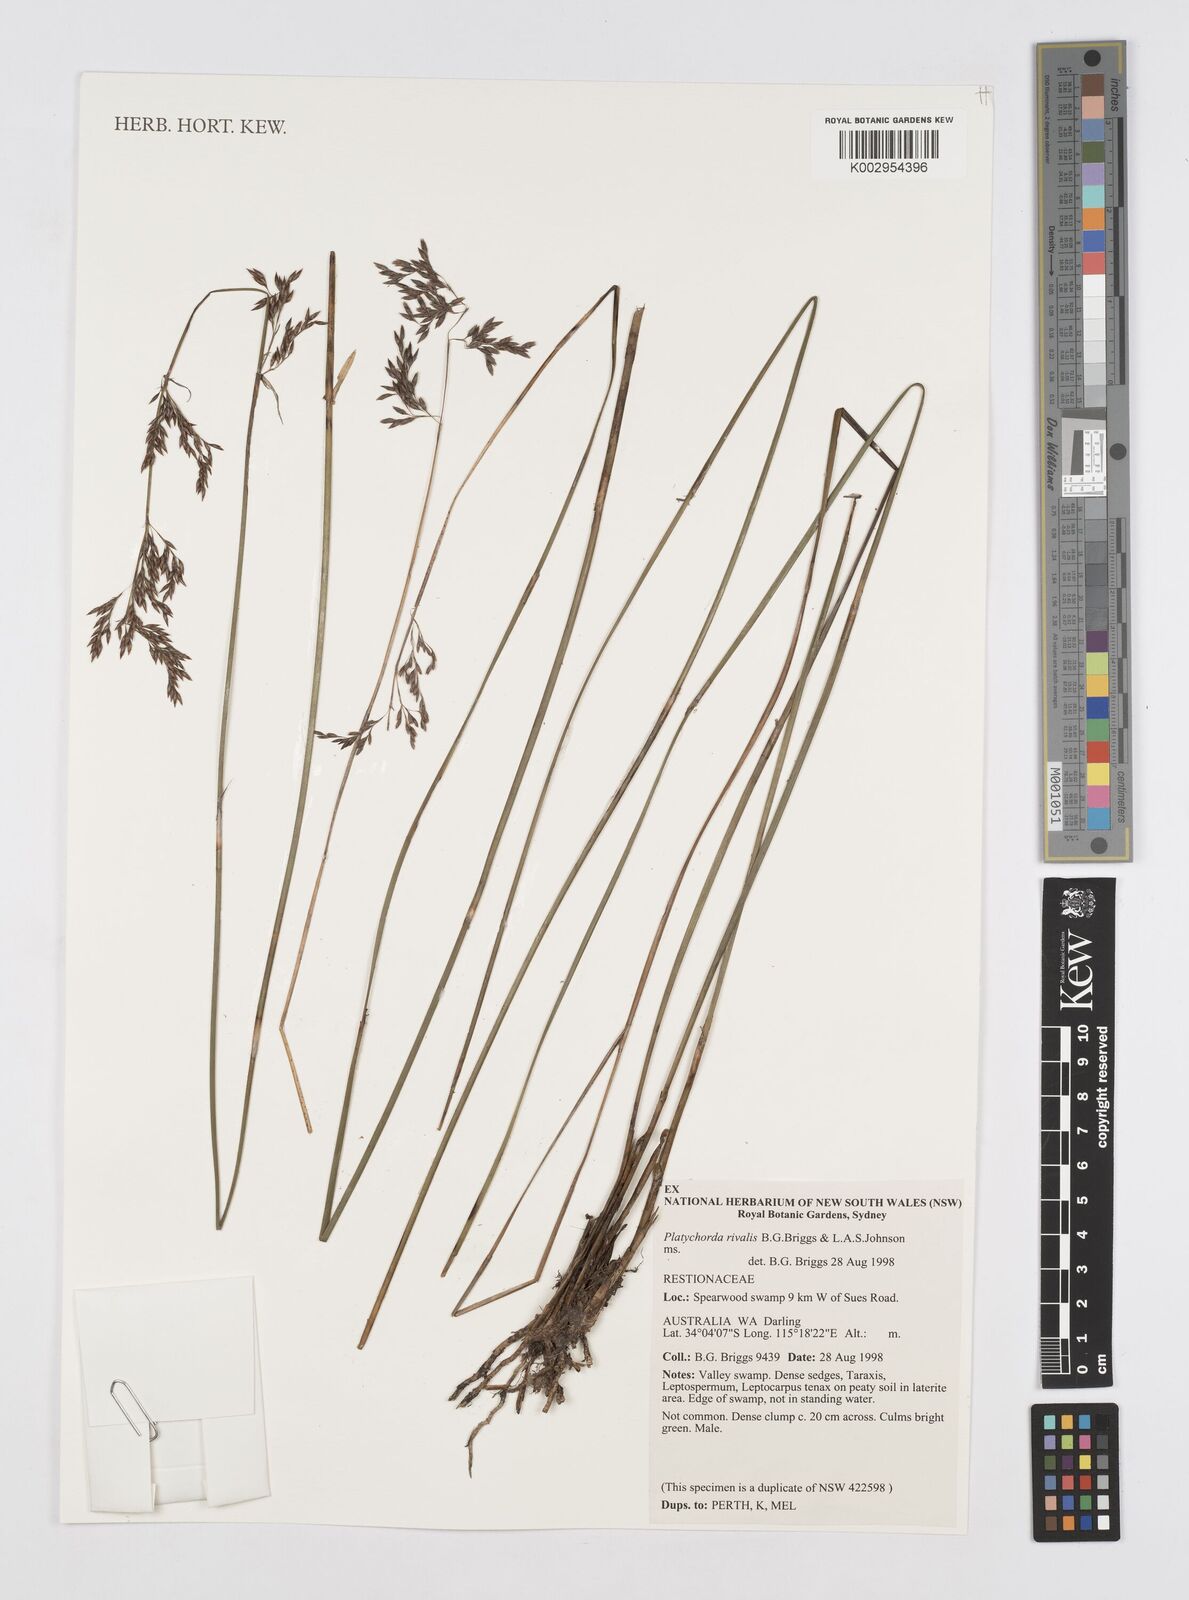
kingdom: Plantae
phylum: Tracheophyta
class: Liliopsida
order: Poales
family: Restionaceae
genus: Platychorda
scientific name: Platychorda rivalis
